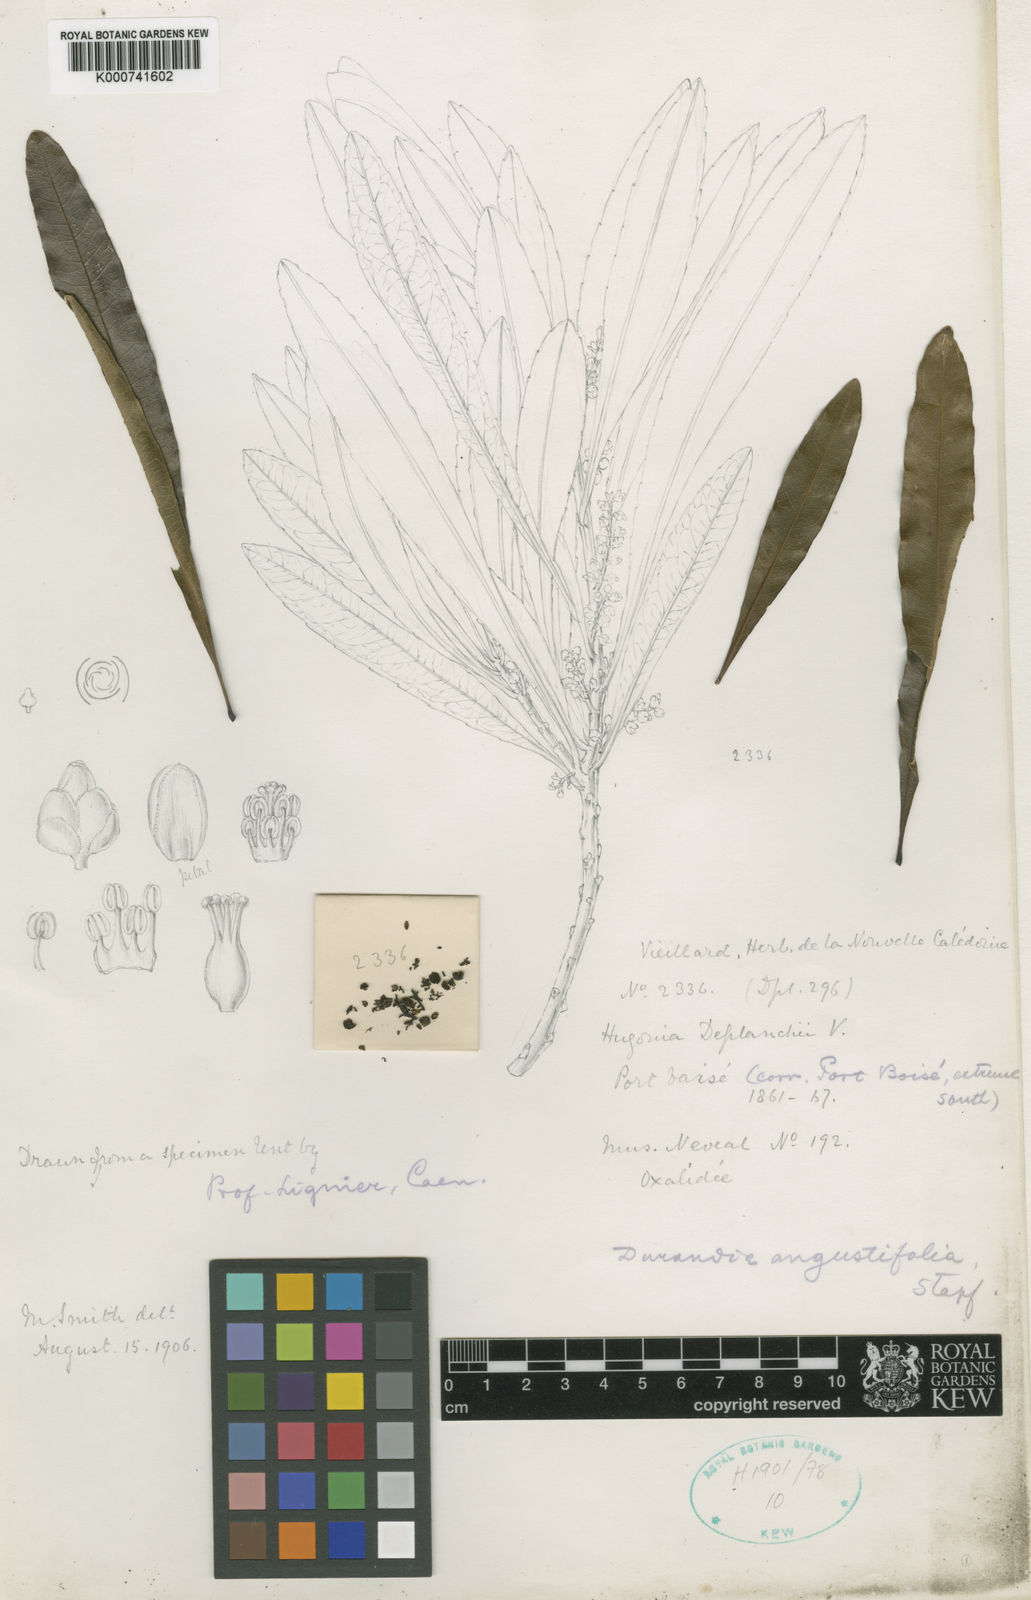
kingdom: Plantae
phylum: Tracheophyta
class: Magnoliopsida
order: Malpighiales
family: Linaceae
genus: Durandea
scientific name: Durandea deplanchei
